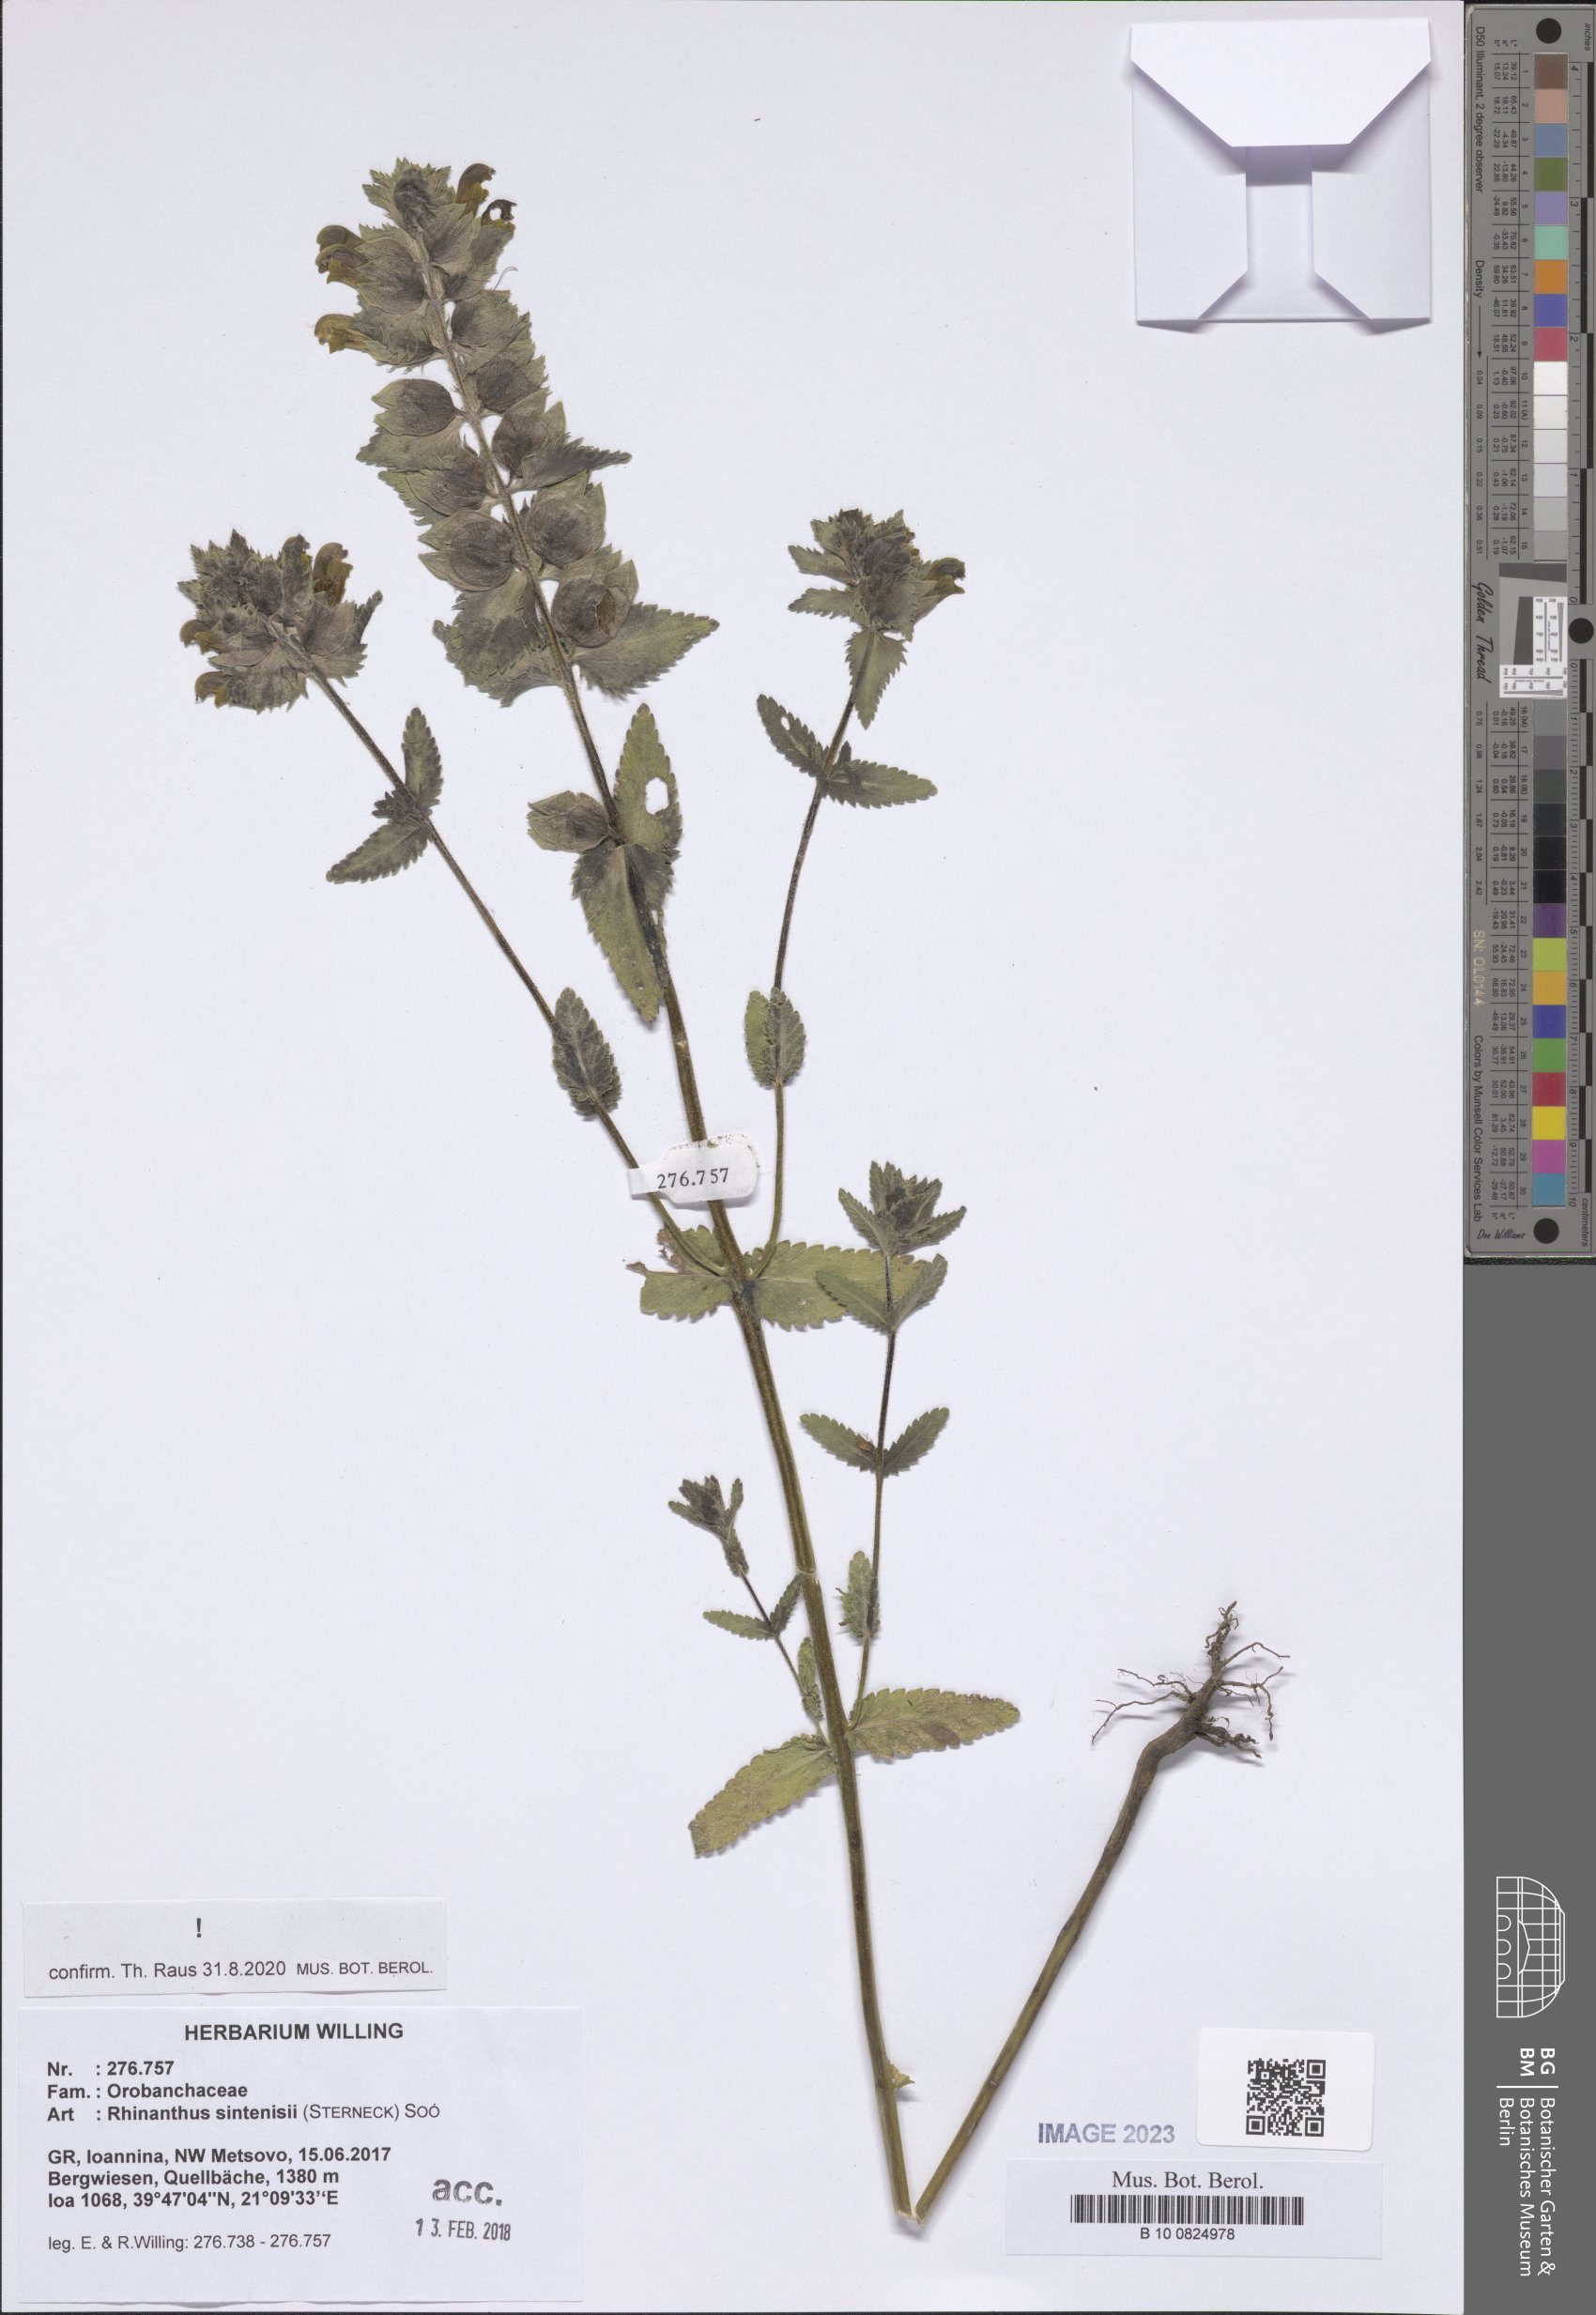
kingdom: Plantae
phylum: Tracheophyta
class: Magnoliopsida
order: Lamiales
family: Orobanchaceae
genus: Rhinanthus
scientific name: Rhinanthus sintenisii
